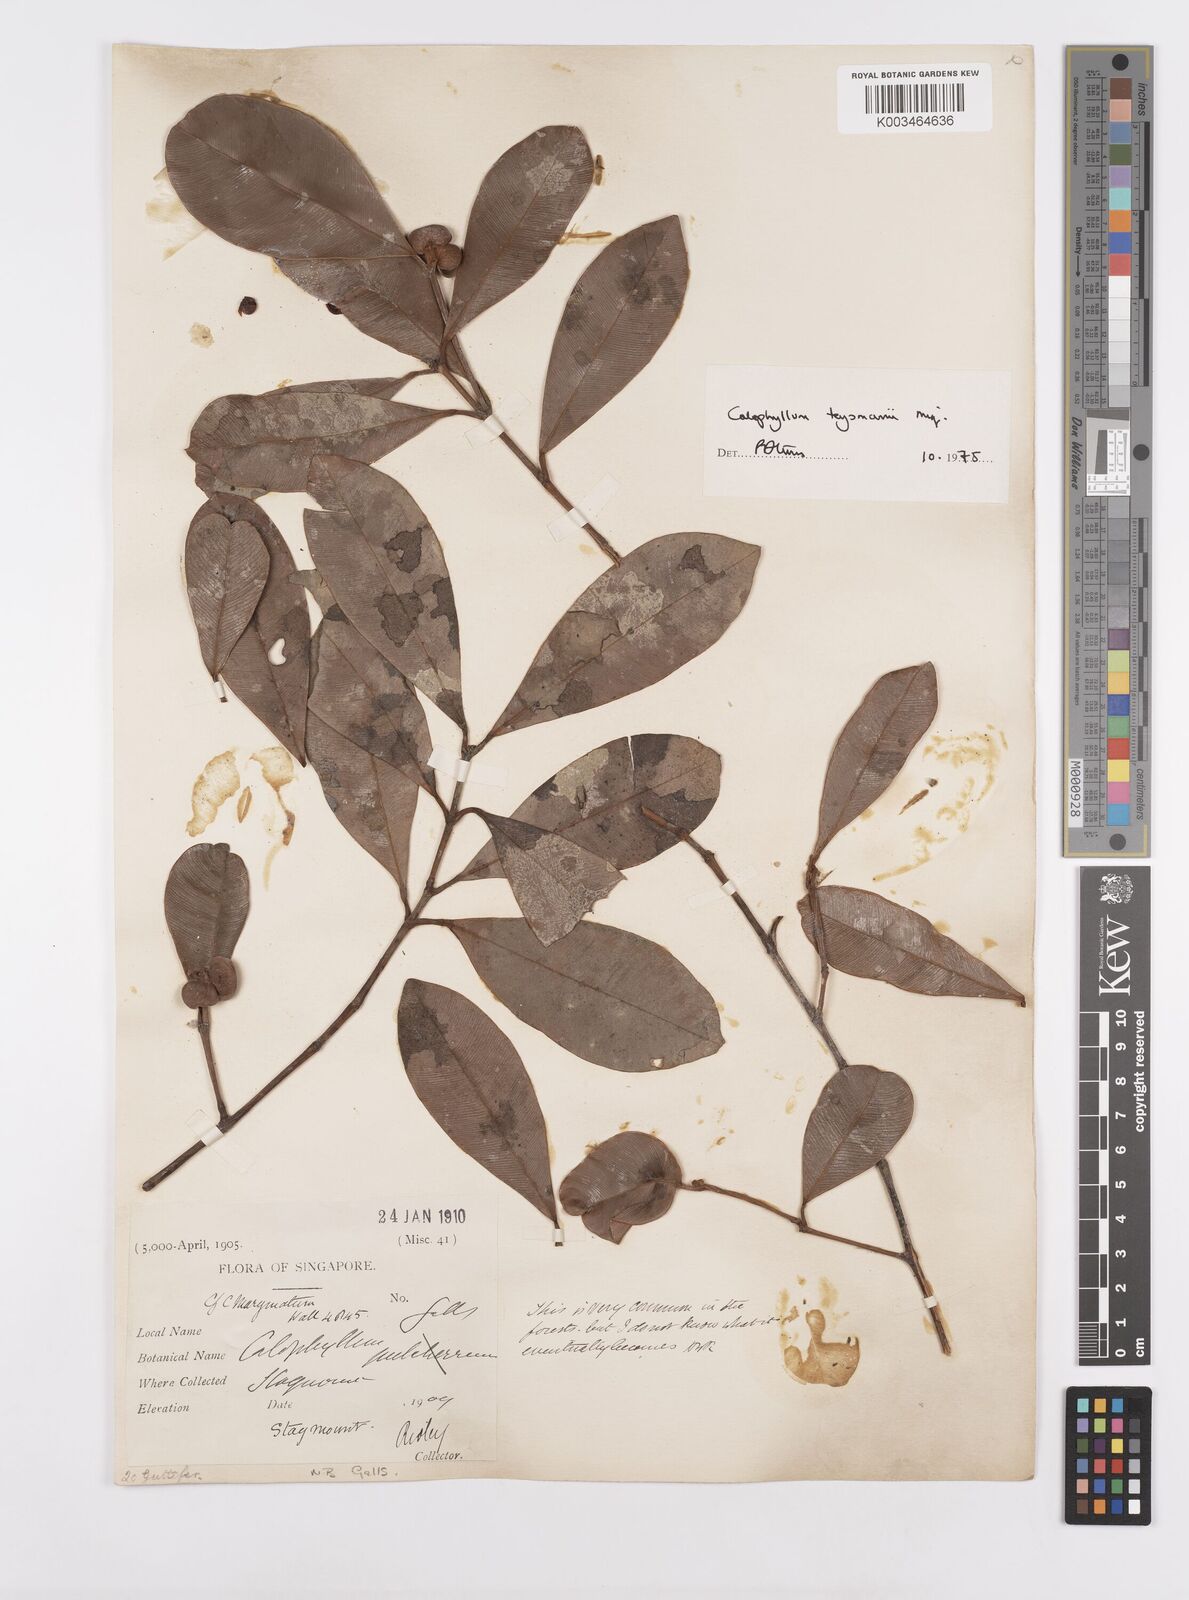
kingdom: Plantae
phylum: Tracheophyta
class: Magnoliopsida
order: Malpighiales
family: Calophyllaceae
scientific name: Calophyllaceae
